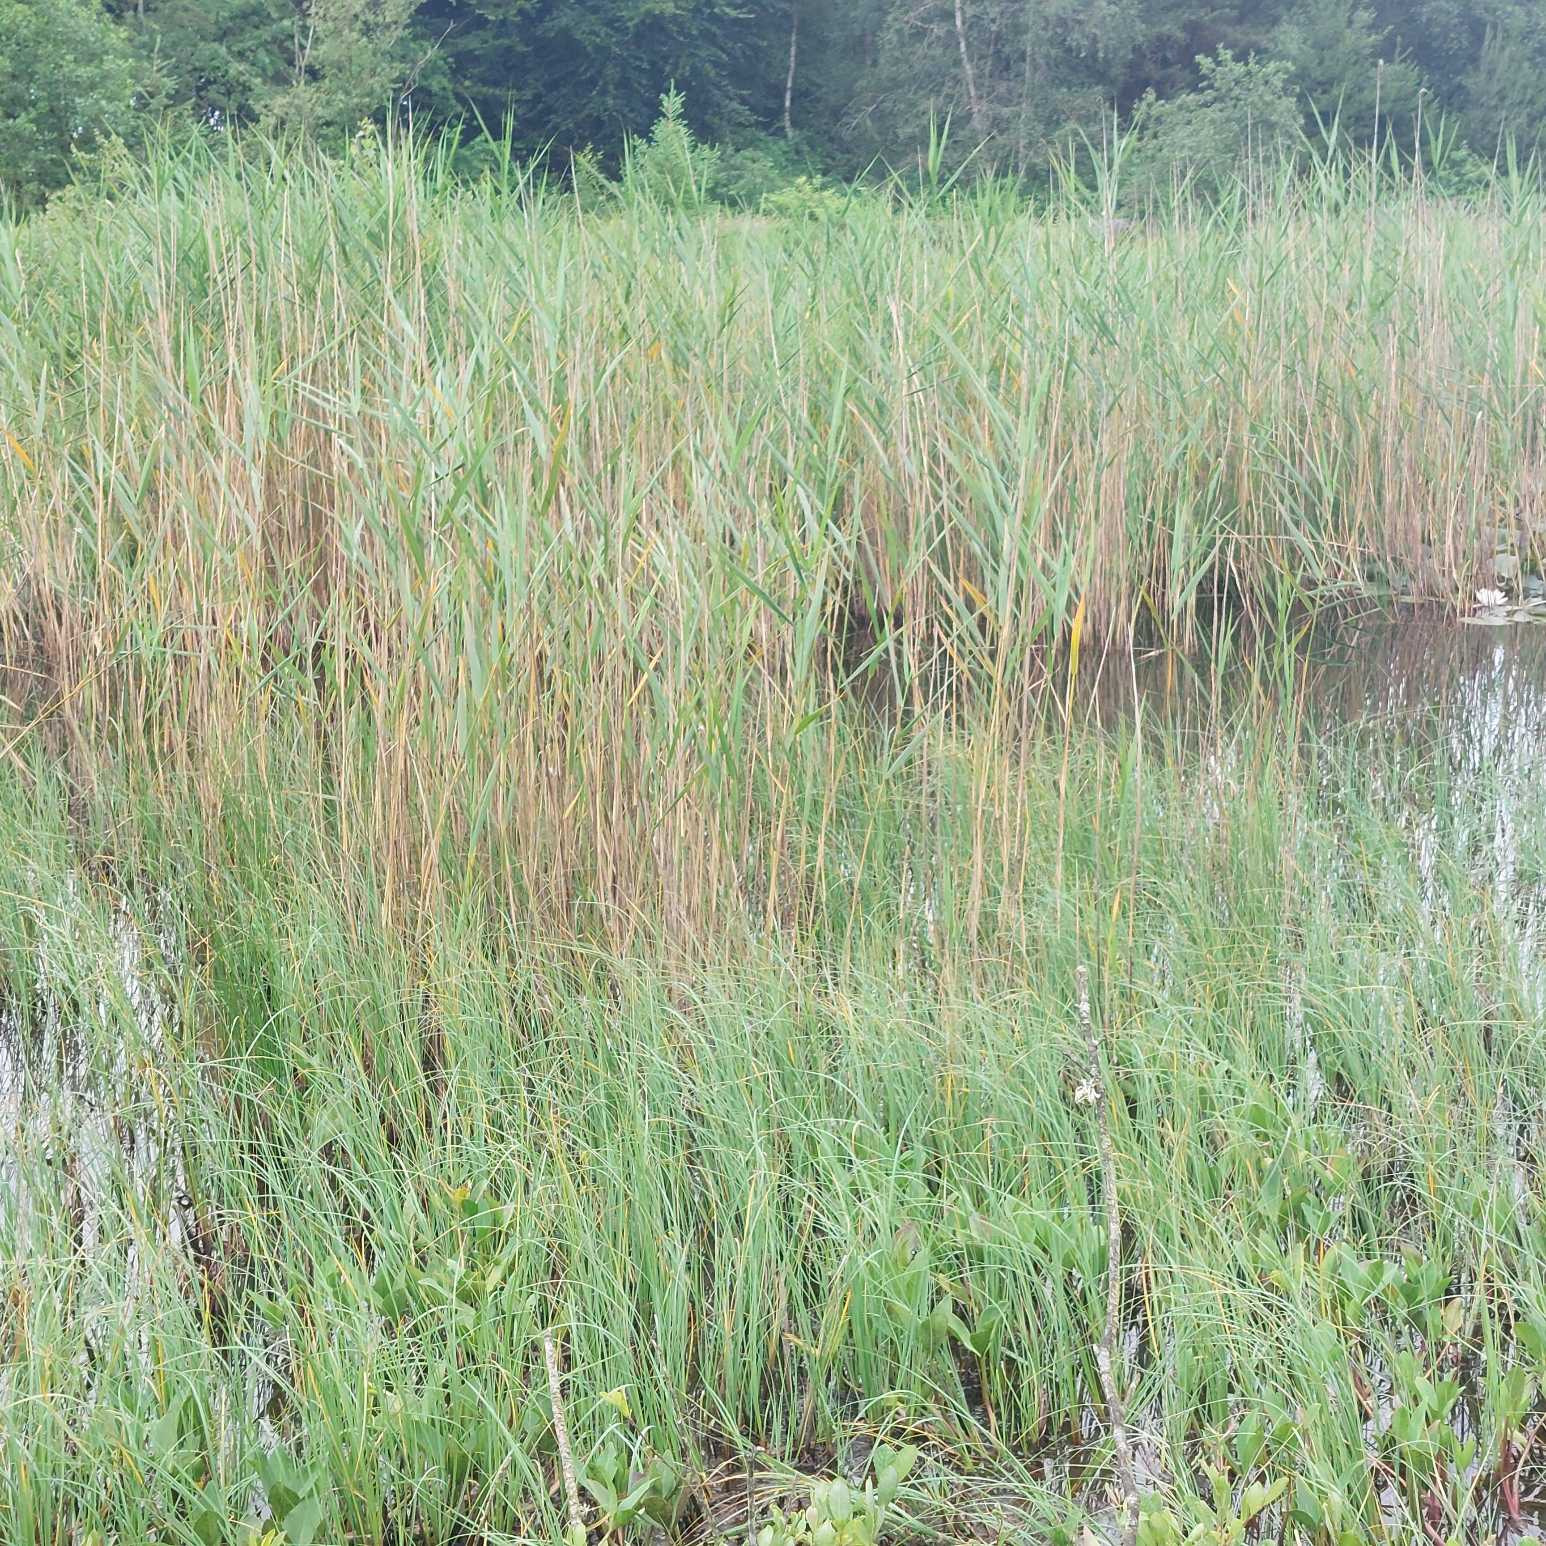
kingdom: Plantae
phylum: Tracheophyta
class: Liliopsida
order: Poales
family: Poaceae
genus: Phragmites
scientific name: Phragmites australis
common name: Tagrør
